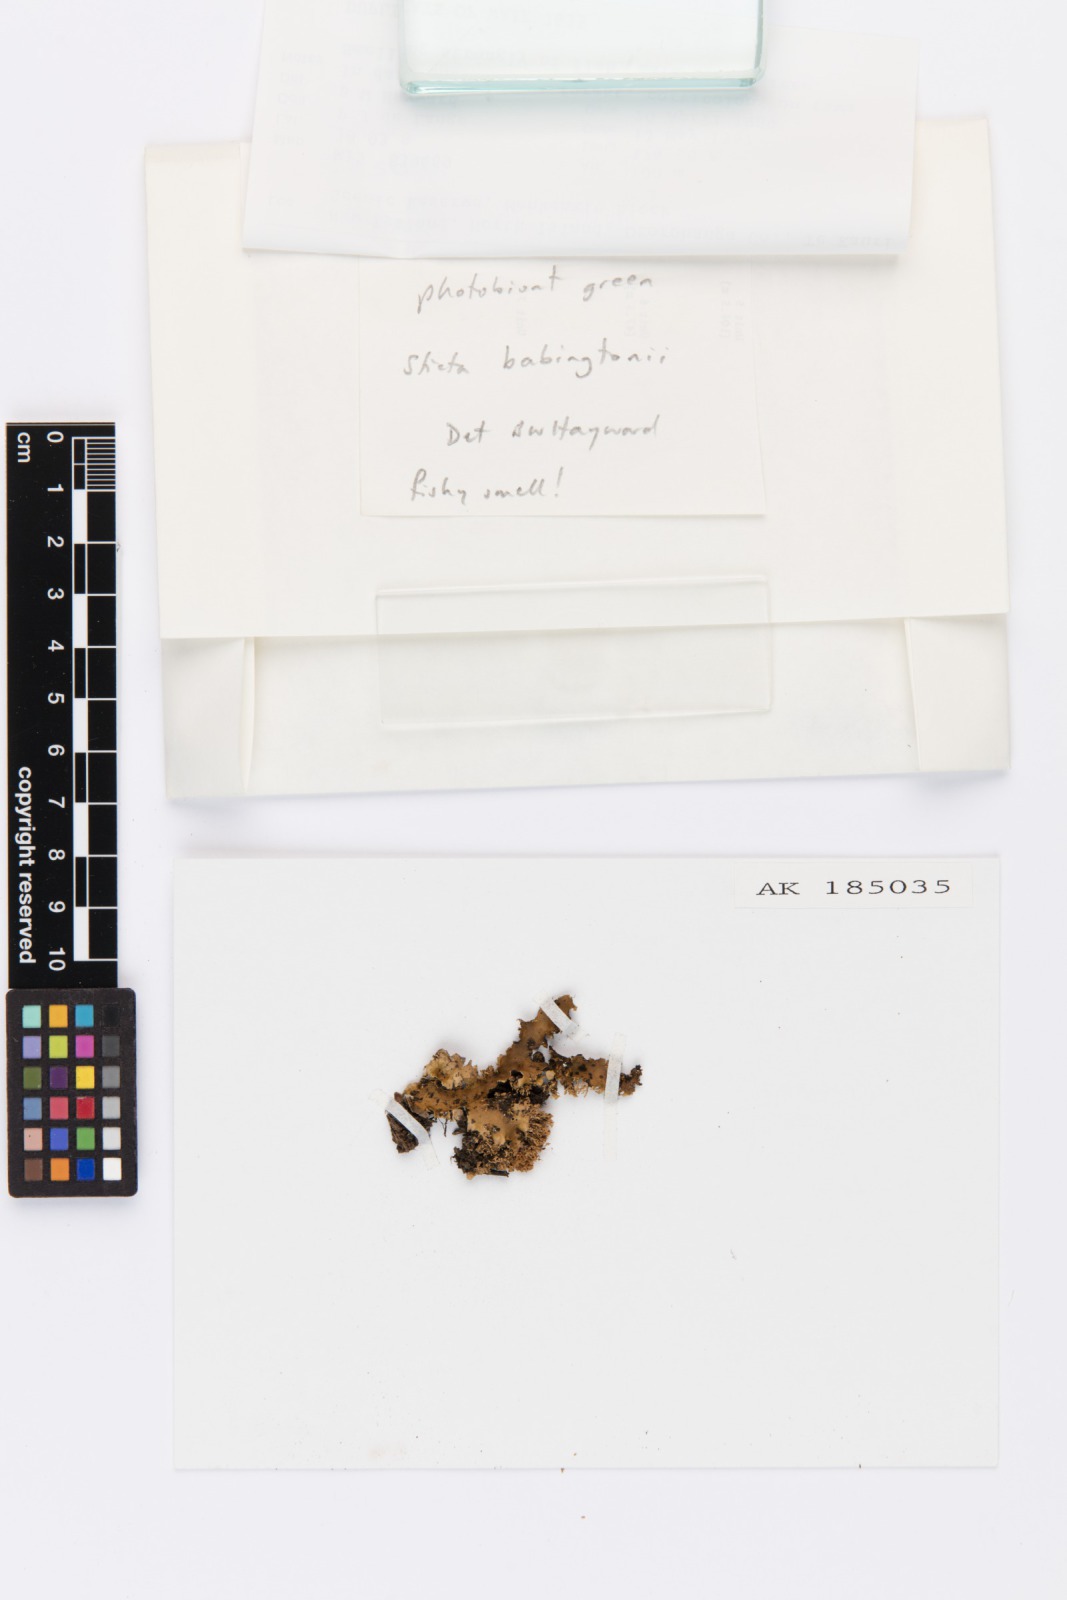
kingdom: Fungi
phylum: Ascomycota
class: Lecanoromycetes
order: Peltigerales
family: Lobariaceae
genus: Sticta
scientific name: Sticta babingtonii
